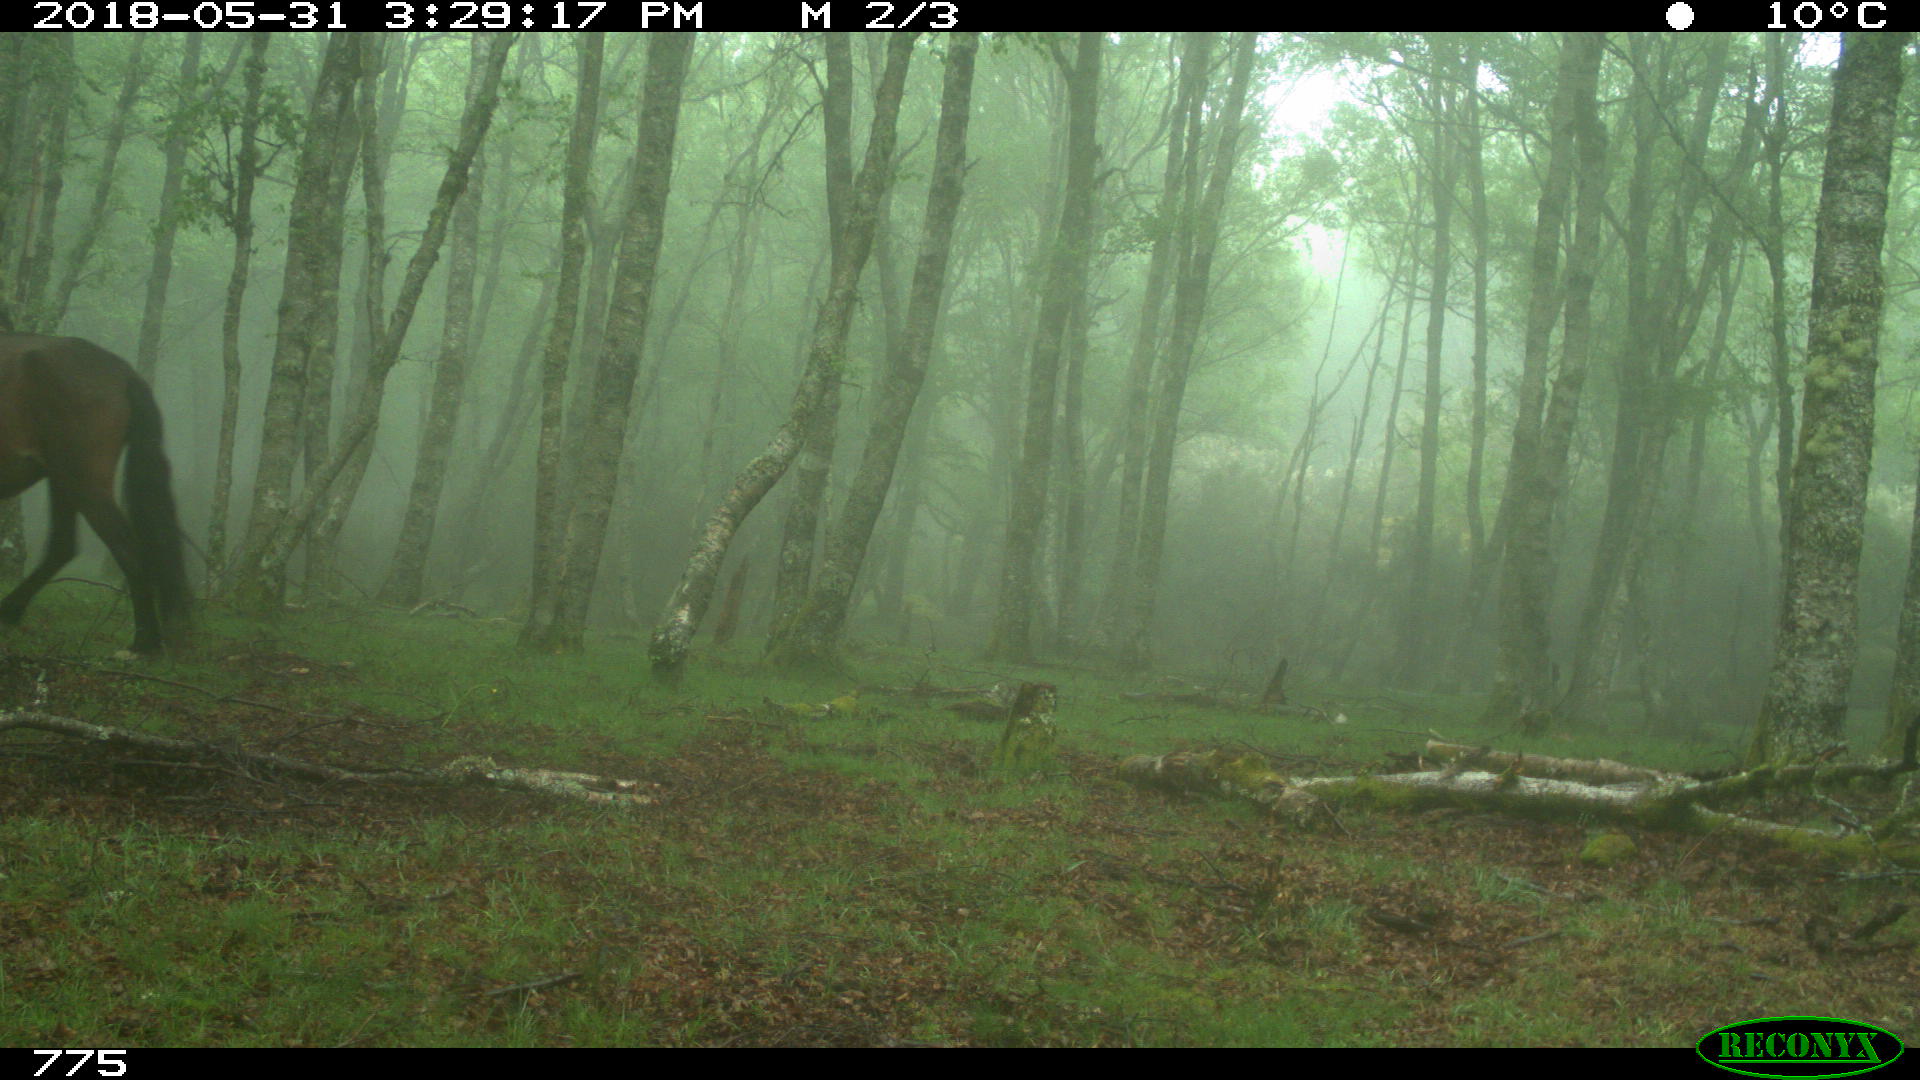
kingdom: Animalia
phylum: Chordata
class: Mammalia
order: Perissodactyla
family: Equidae
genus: Equus
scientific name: Equus caballus
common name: Horse
